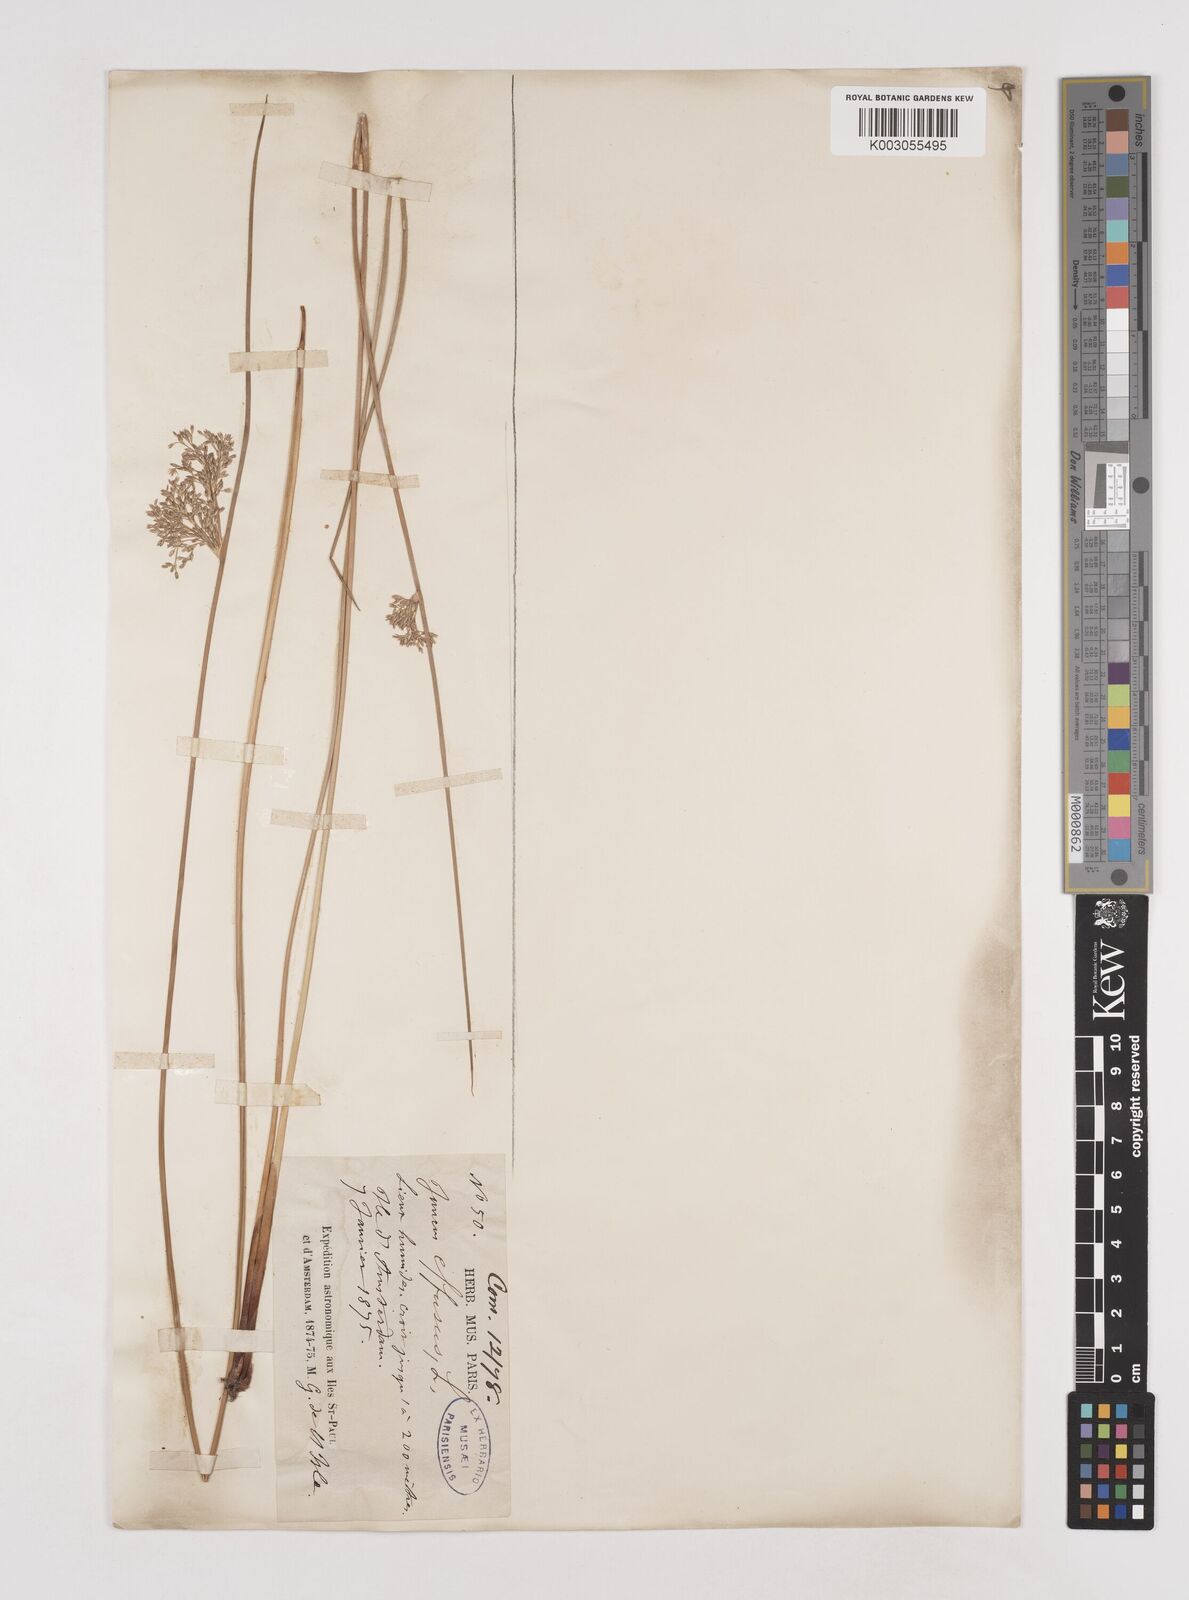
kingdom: Plantae
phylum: Tracheophyta
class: Liliopsida
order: Poales
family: Juncaceae
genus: Juncus
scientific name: Juncus effusus
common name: Soft rush
